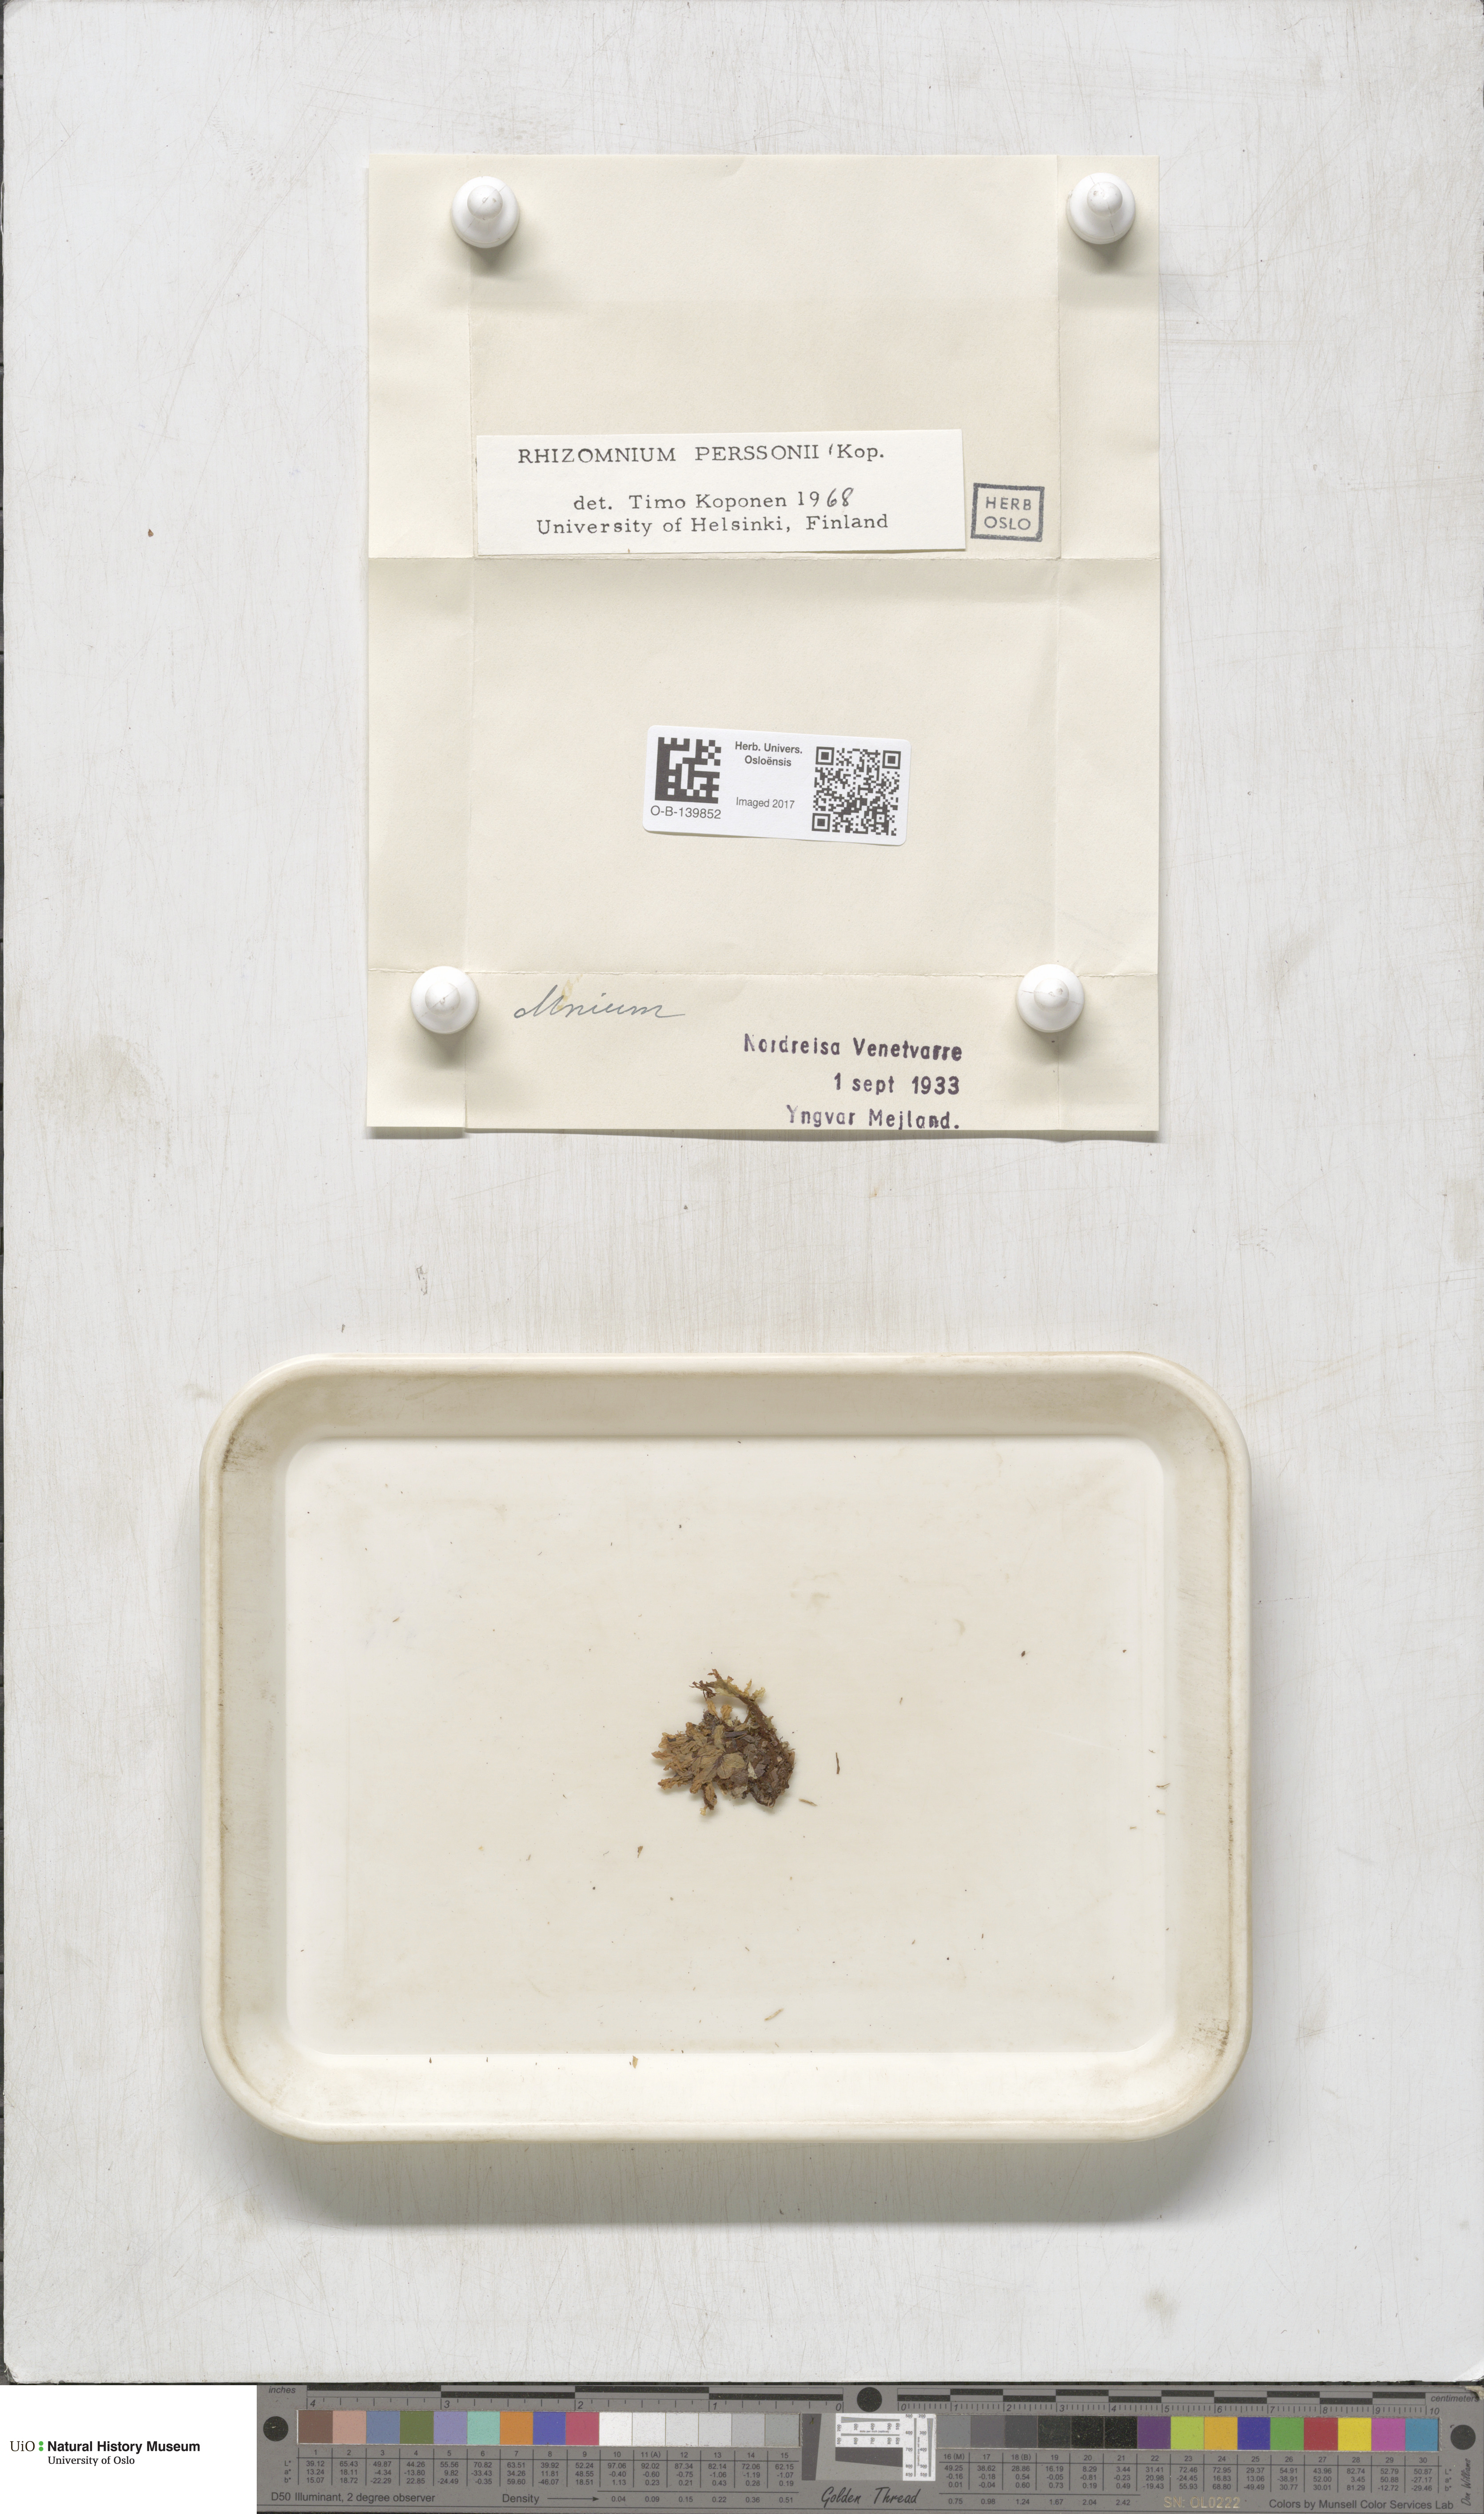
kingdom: Plantae
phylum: Bryophyta
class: Bryopsida
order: Bryales
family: Mniaceae
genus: Rhizomnium
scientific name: Rhizomnium magnifolium
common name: Large-leaved leafy moss
